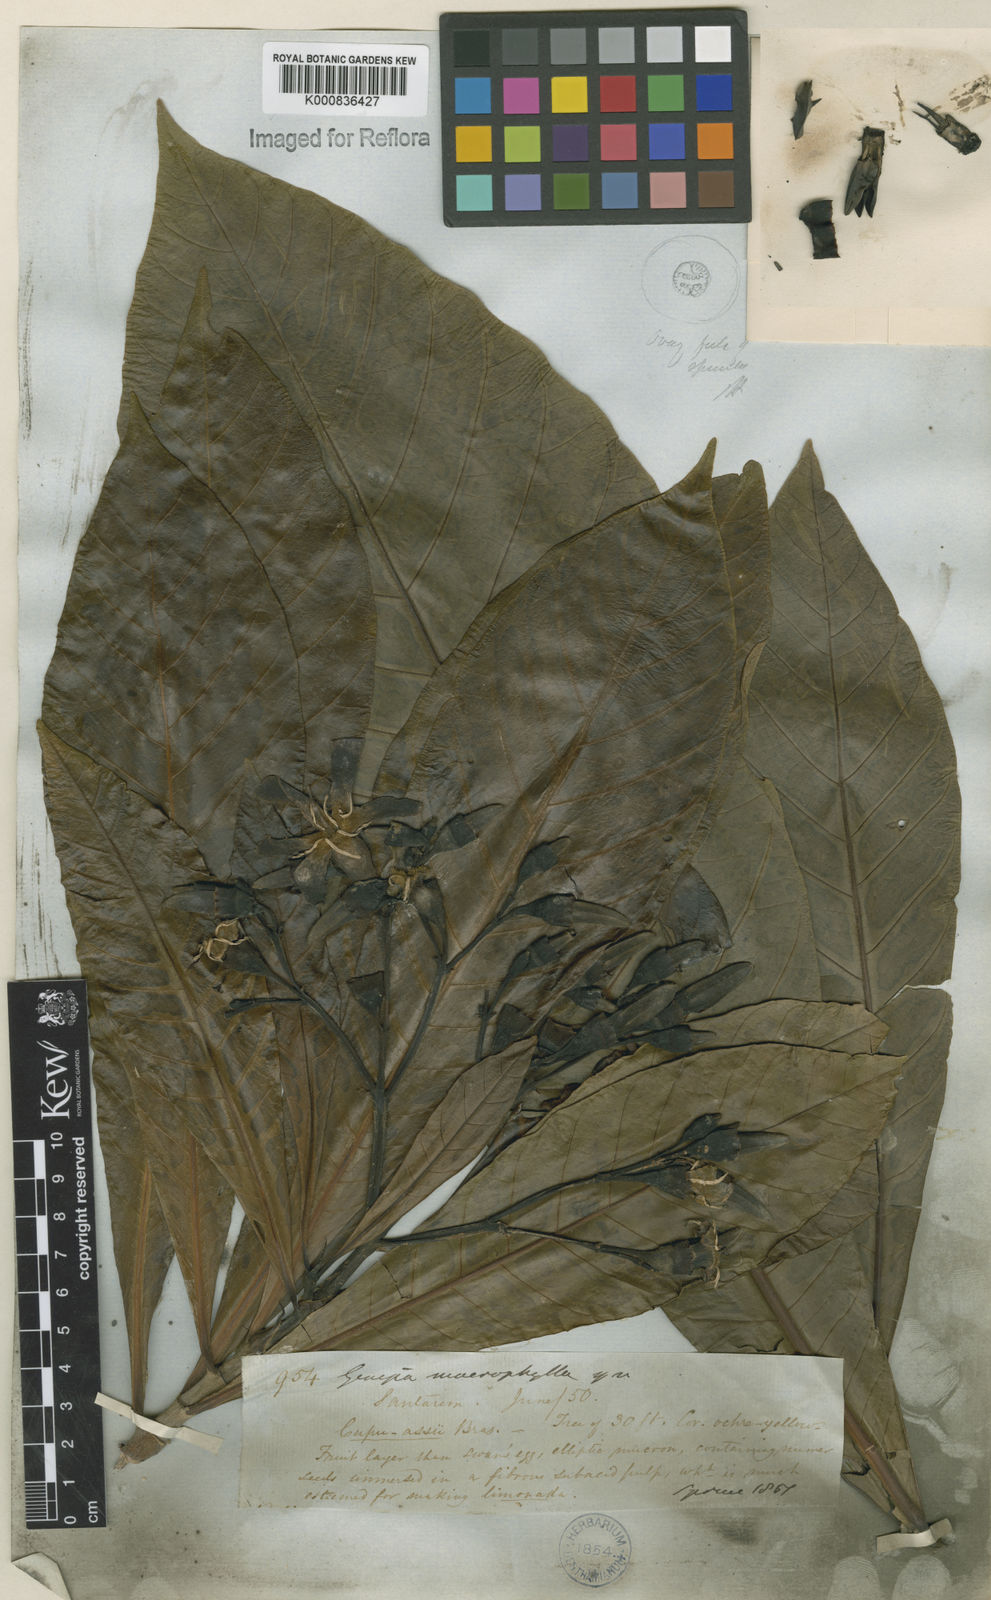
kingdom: Plantae
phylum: Tracheophyta
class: Magnoliopsida
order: Gentianales
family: Rubiaceae
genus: Genipa
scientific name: Genipa americana
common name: Genipap
